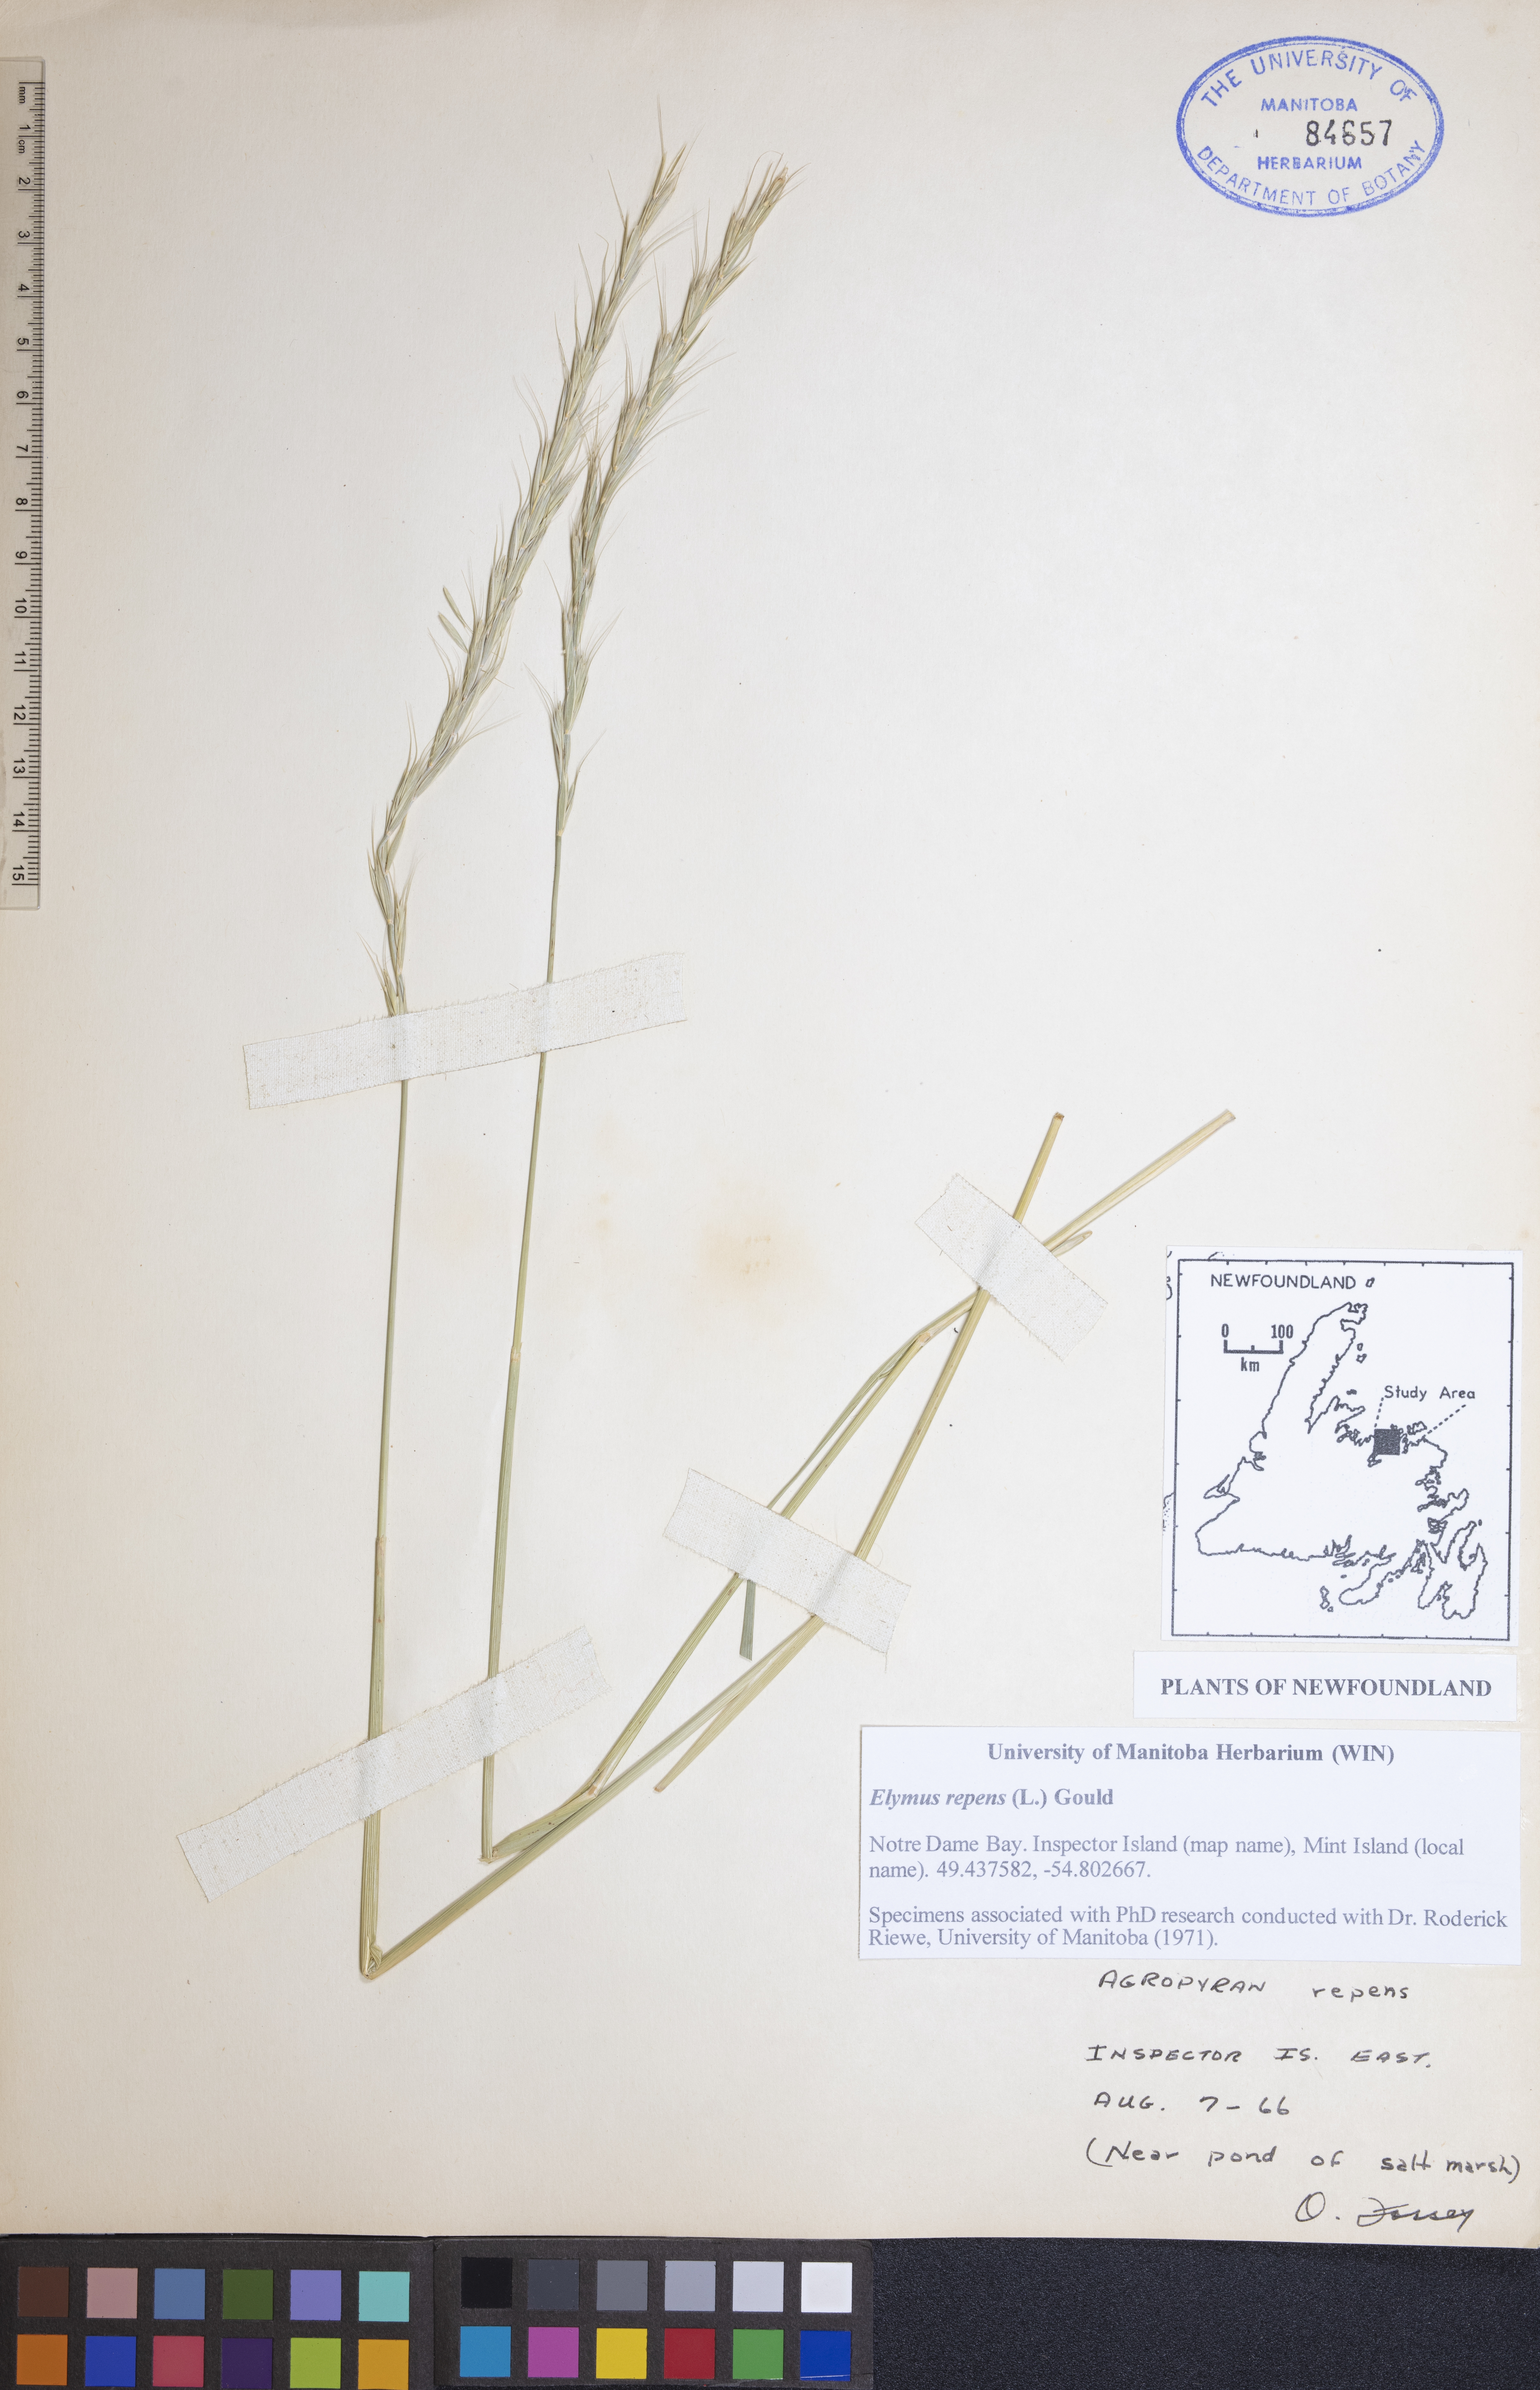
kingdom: Plantae
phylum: Tracheophyta
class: Liliopsida
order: Poales
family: Poaceae
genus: Elymus
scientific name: Elymus repens
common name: Quackgrass
